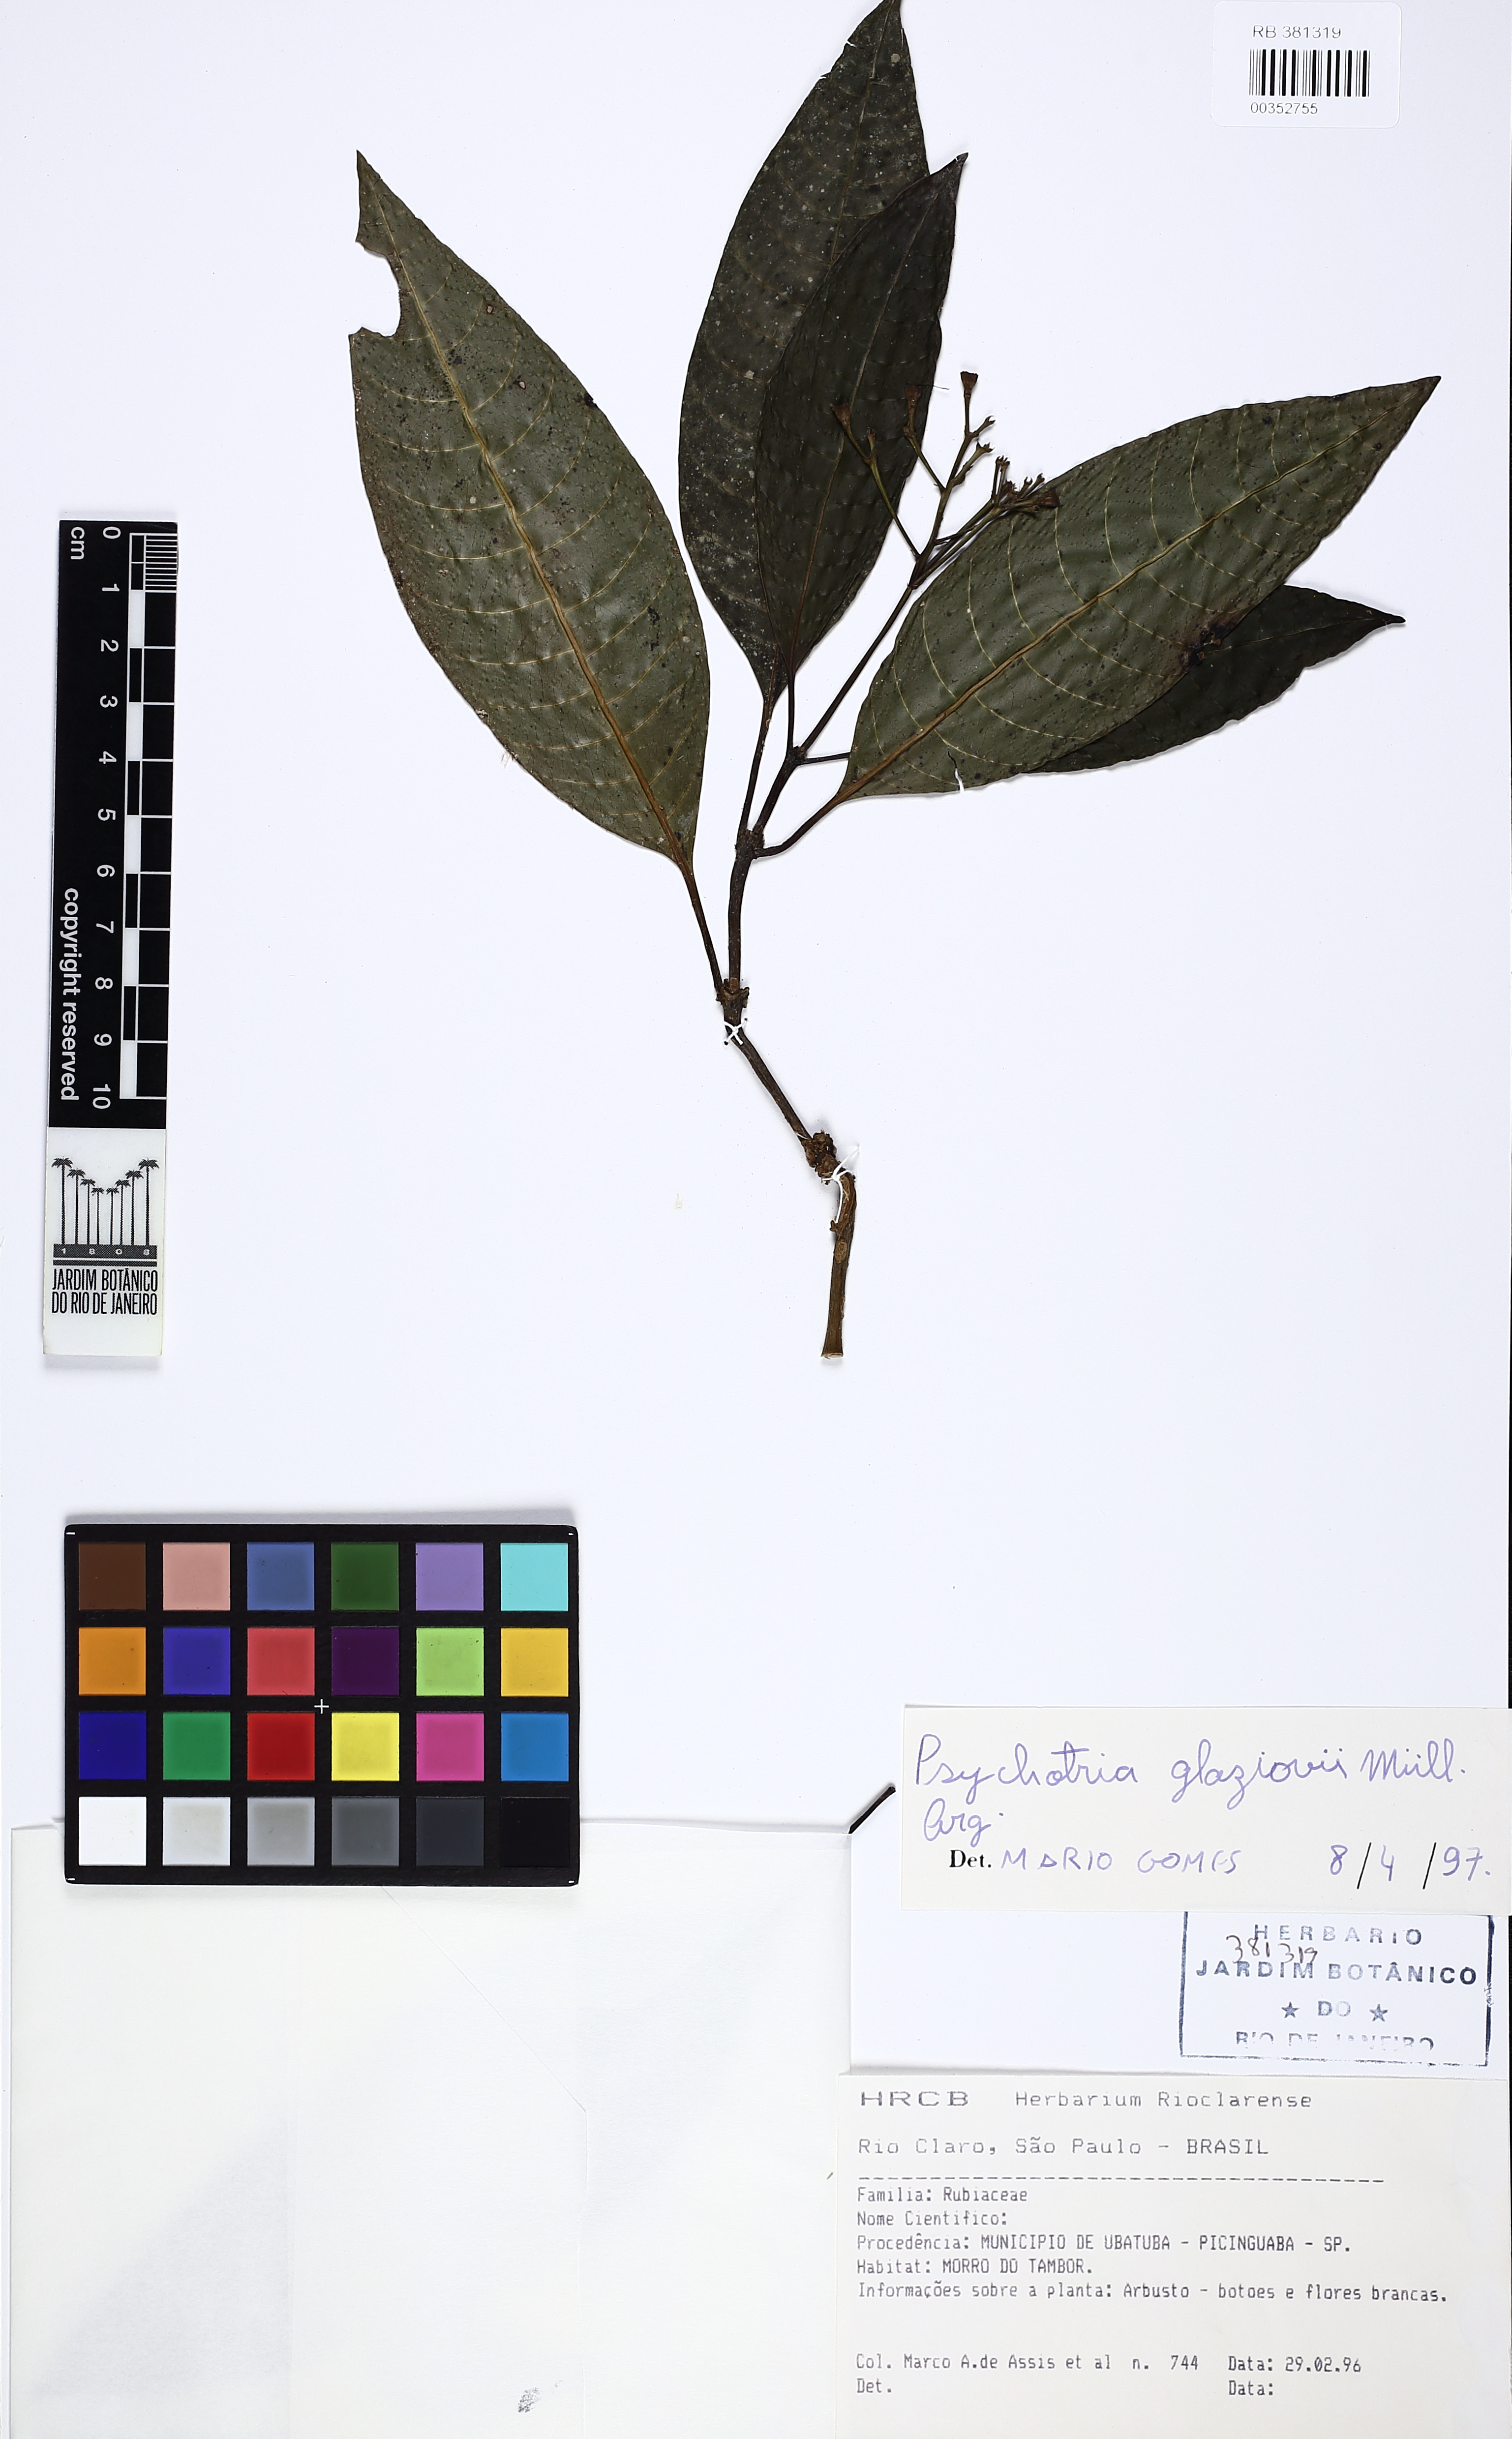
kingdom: Plantae
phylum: Tracheophyta
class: Magnoliopsida
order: Gentianales
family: Rubiaceae
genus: Psychotria
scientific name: Psychotria glaziovii
